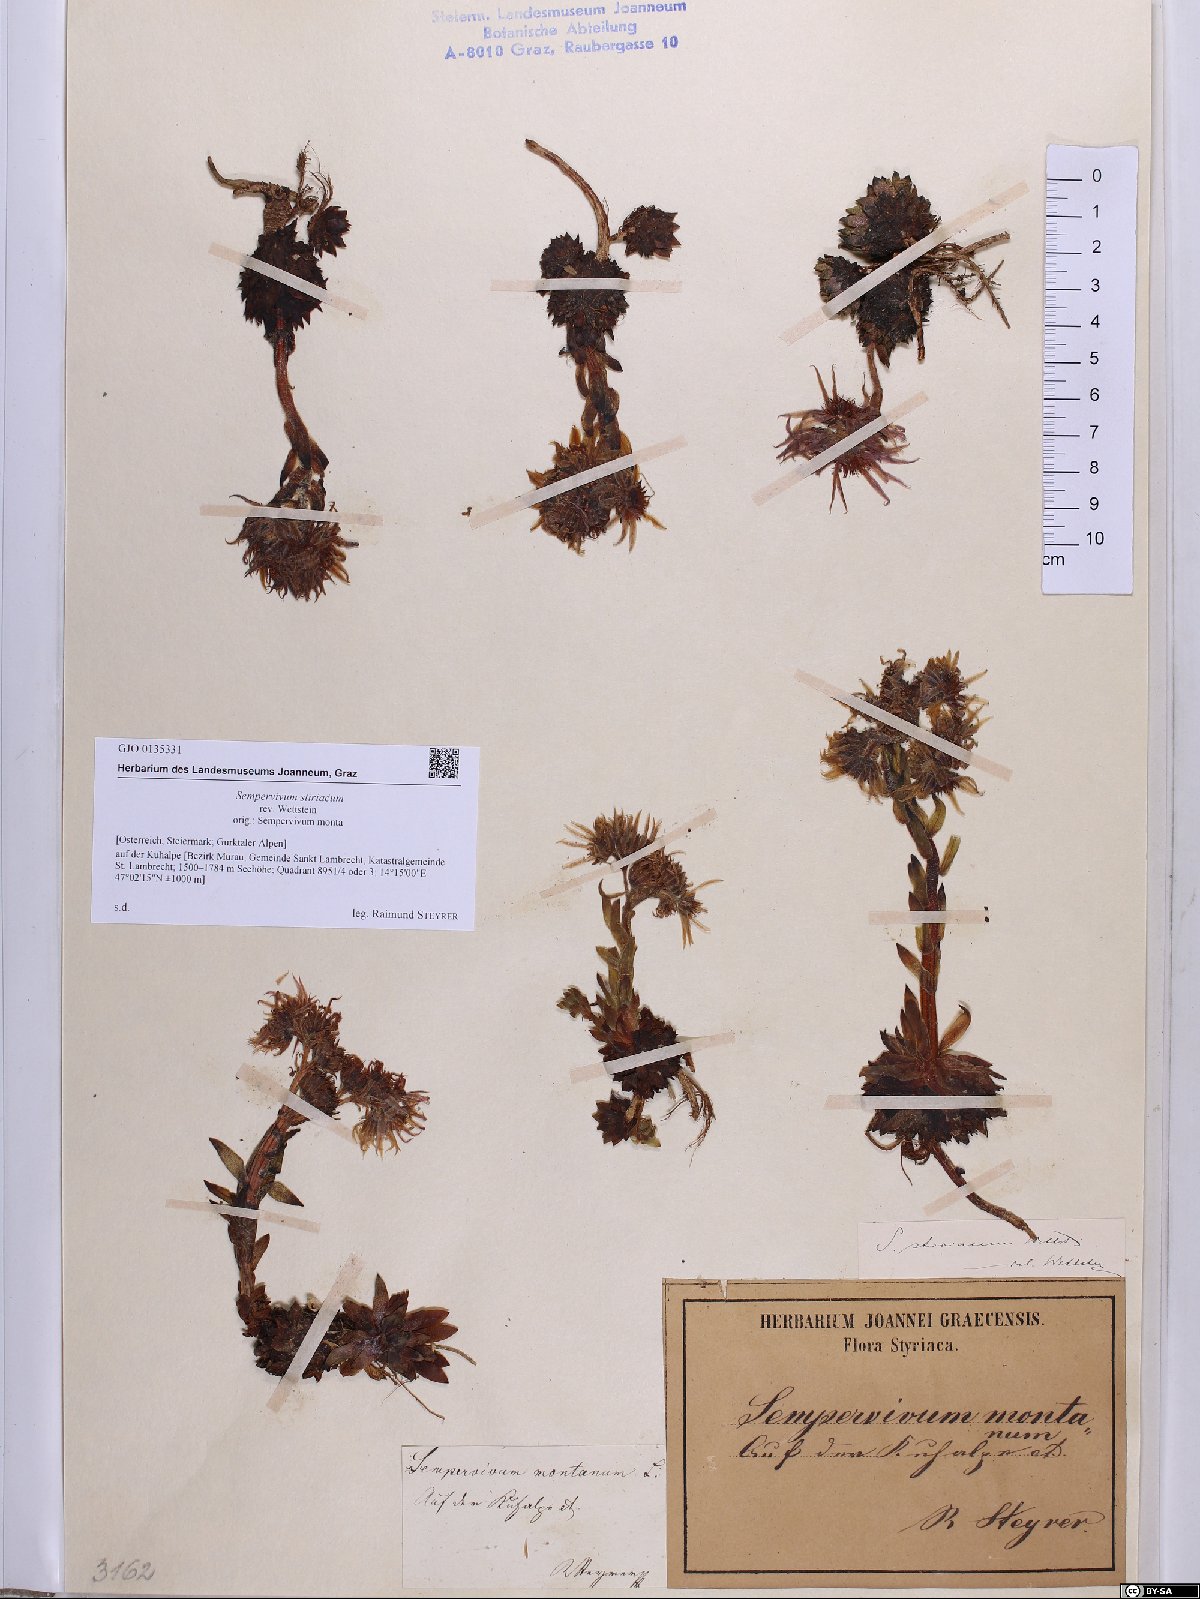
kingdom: Plantae
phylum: Tracheophyta
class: Magnoliopsida
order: Saxifragales
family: Crassulaceae
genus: Sempervivum
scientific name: Sempervivum montanum
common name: Mountain house-leek
